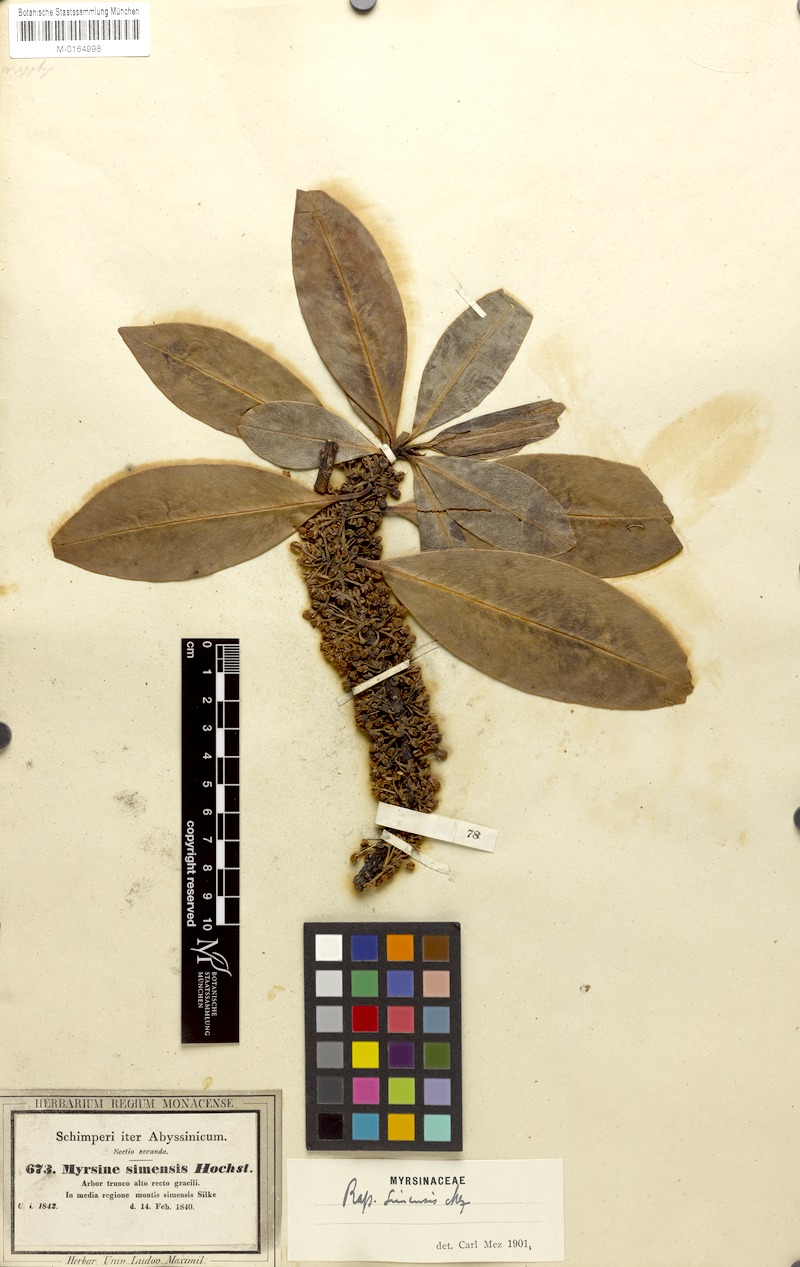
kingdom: Plantae
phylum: Tracheophyta
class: Magnoliopsida
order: Ericales
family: Primulaceae
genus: Myrsine
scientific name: Myrsine melanophloeos
